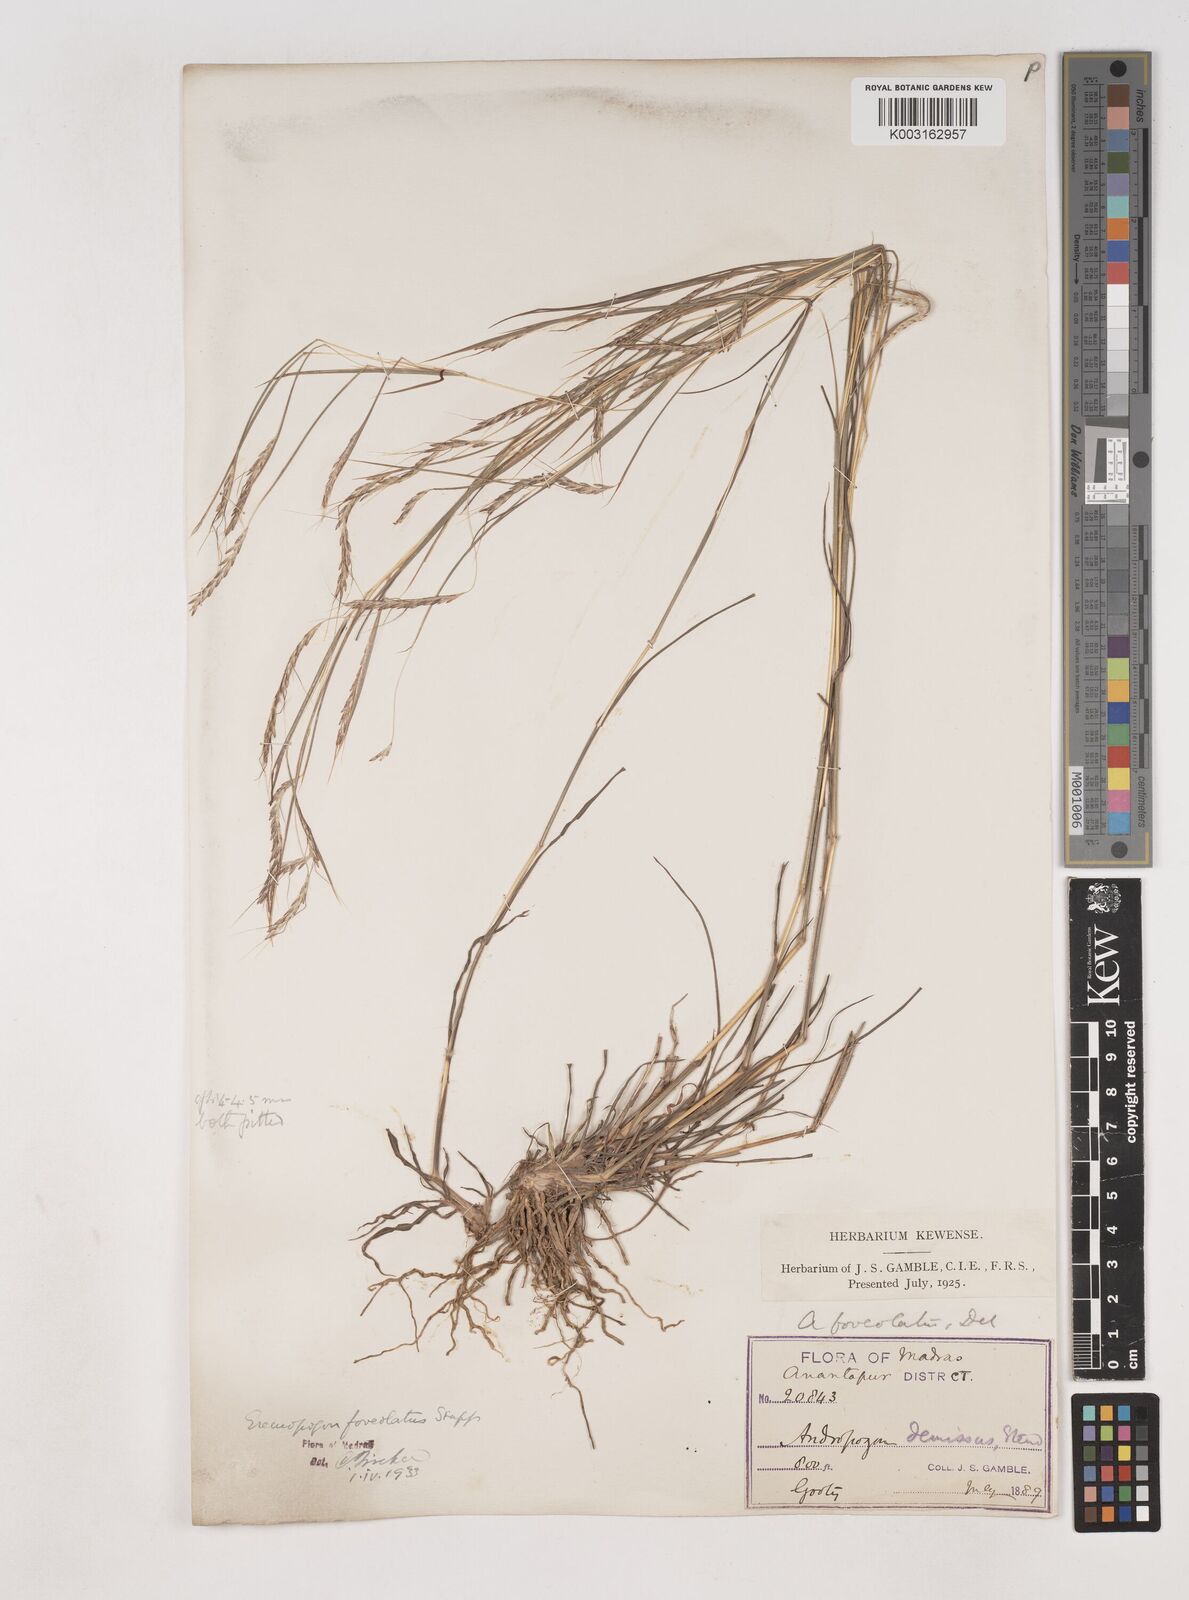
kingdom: Plantae
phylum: Tracheophyta
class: Liliopsida
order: Poales
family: Poaceae
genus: Dichanthium
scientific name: Dichanthium
